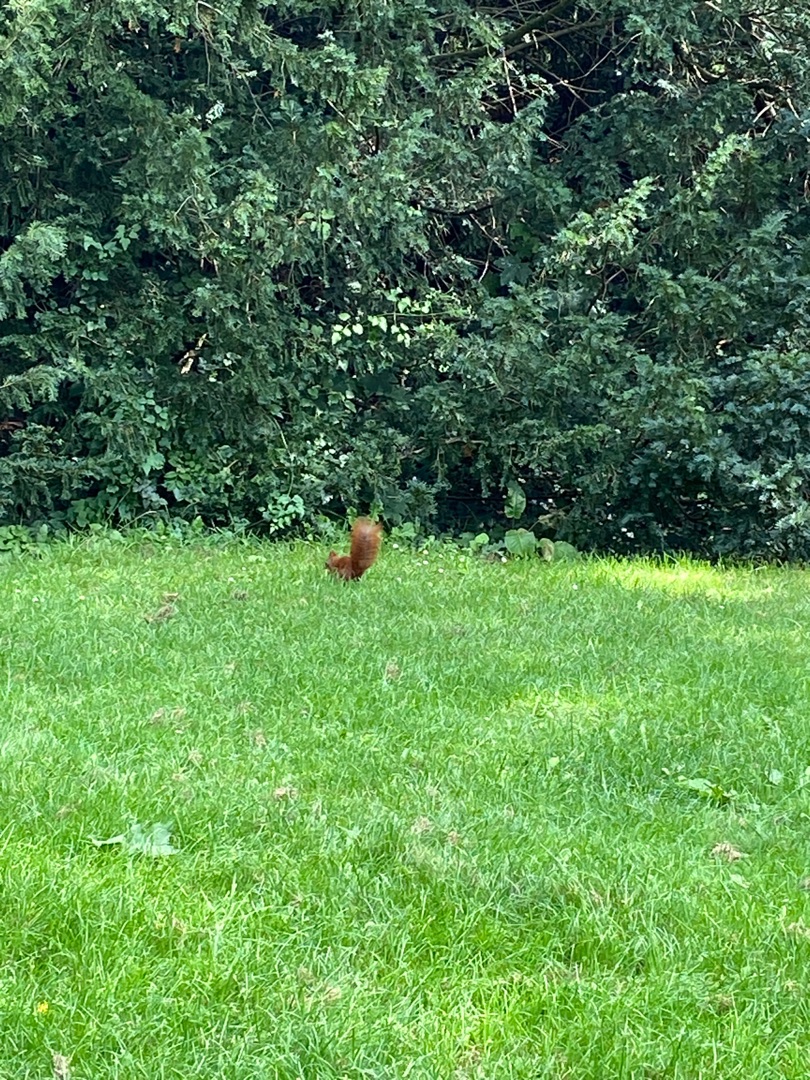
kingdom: Animalia
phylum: Chordata
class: Mammalia
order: Rodentia
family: Sciuridae
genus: Sciurus
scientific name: Sciurus vulgaris
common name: Egern
